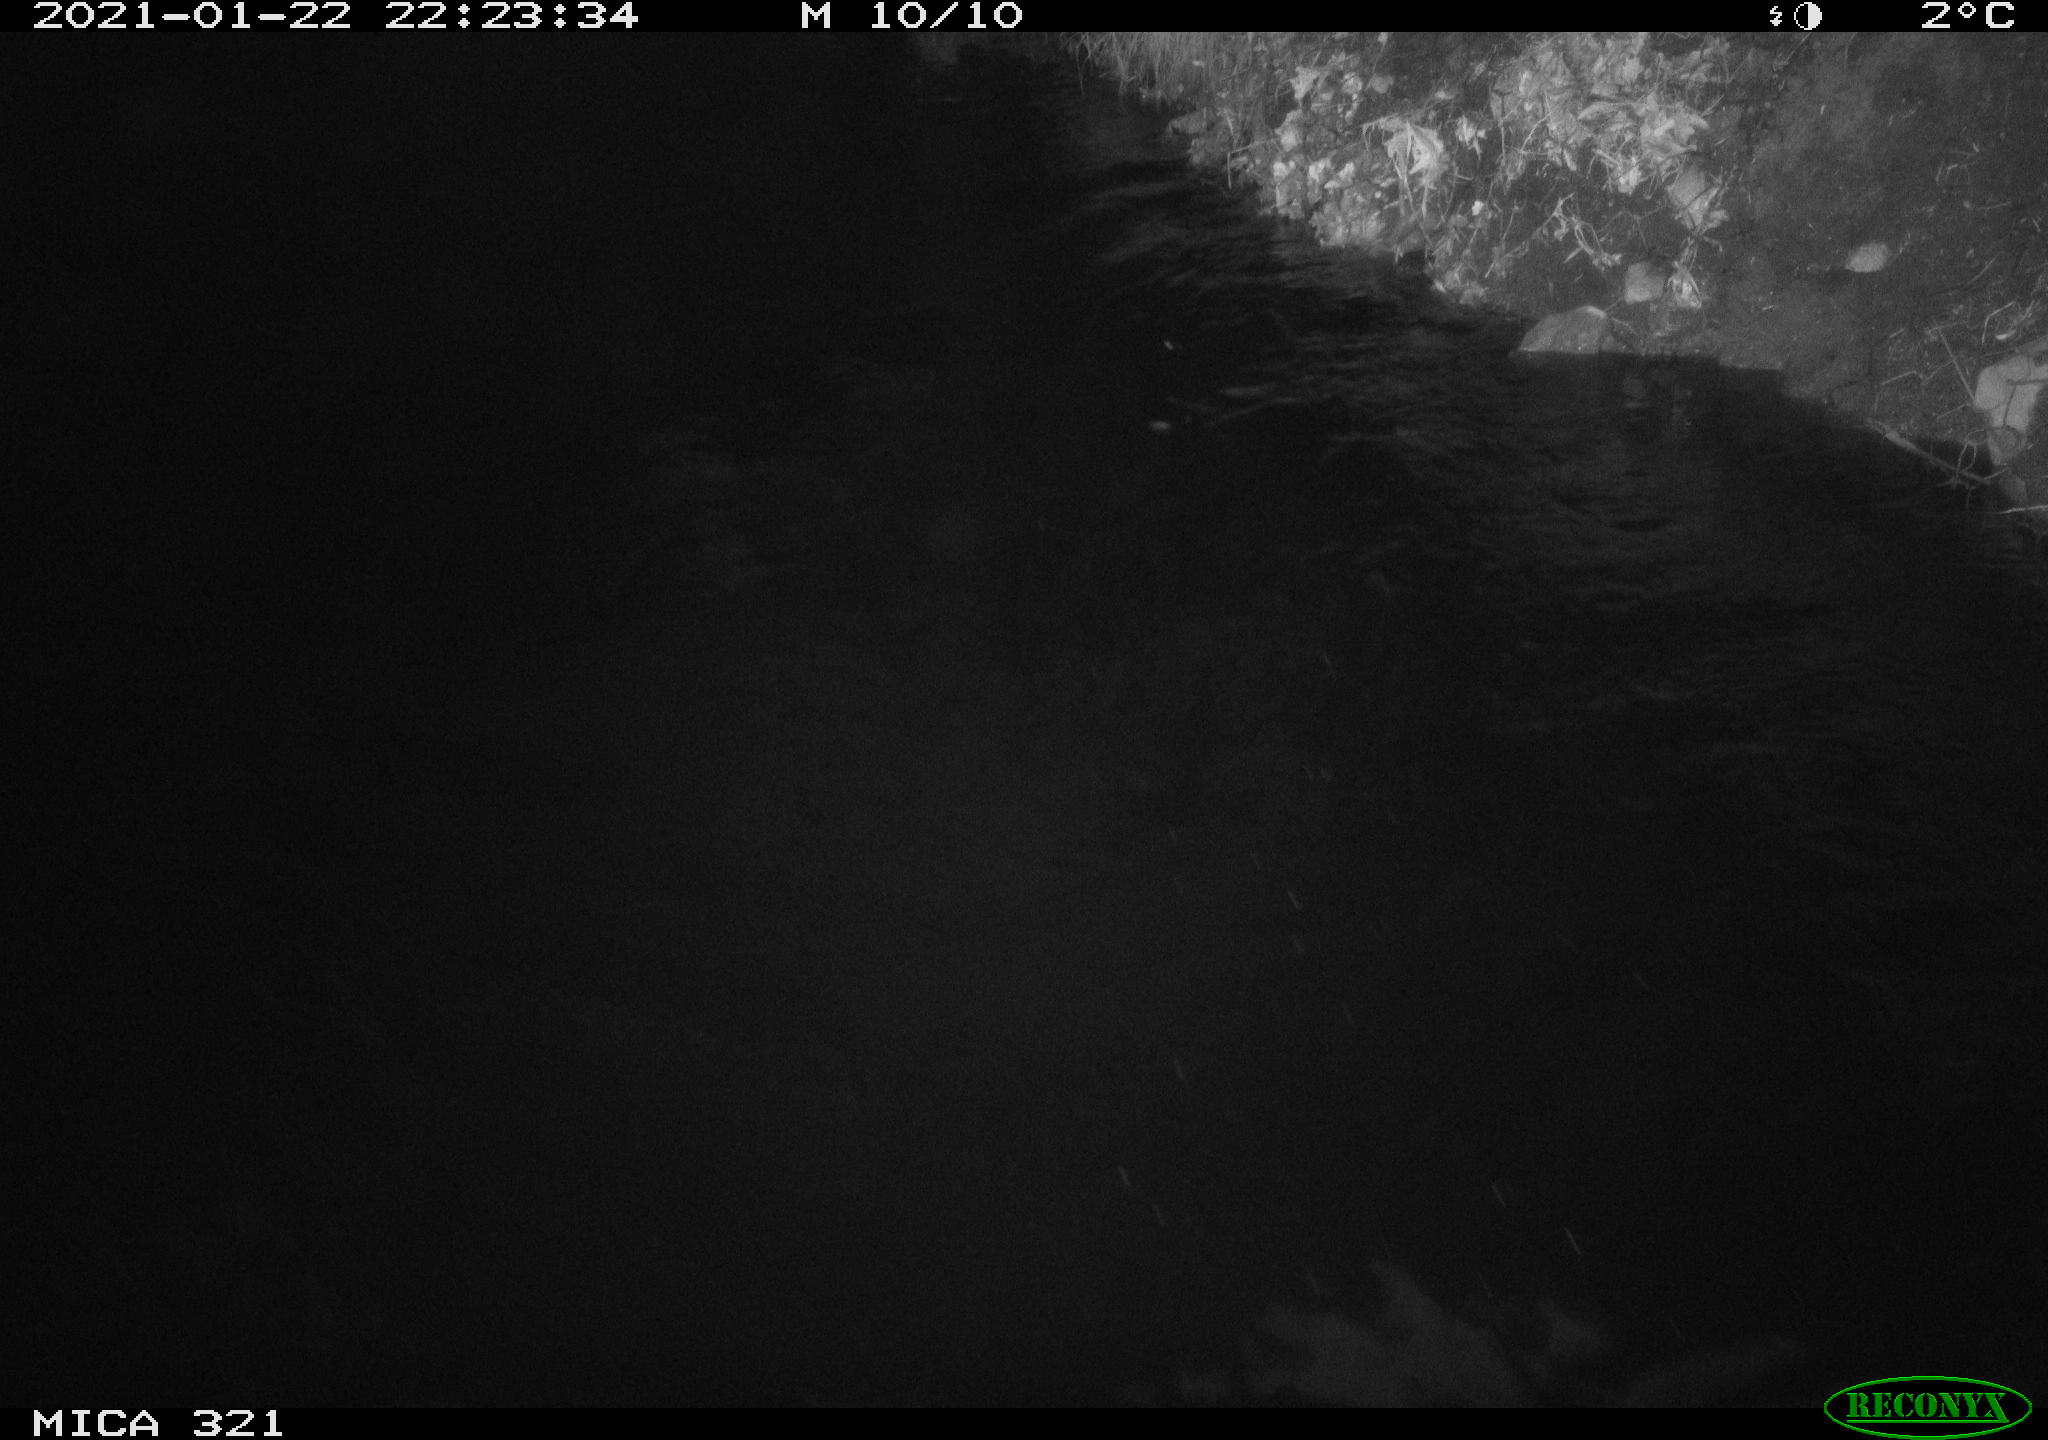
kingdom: Animalia
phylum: Chordata
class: Aves
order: Anseriformes
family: Anatidae
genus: Anas
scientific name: Anas platyrhynchos
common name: Mallard
